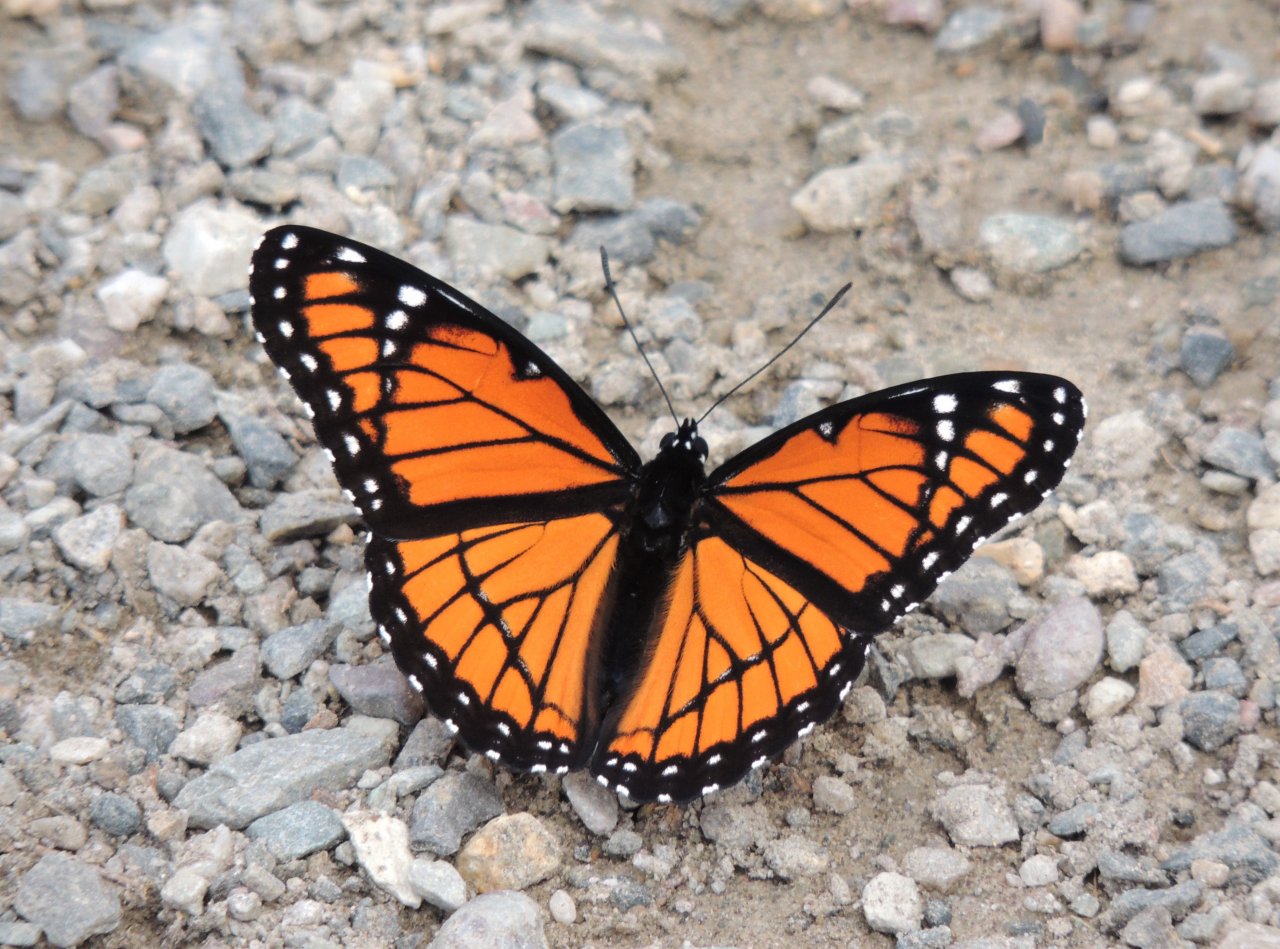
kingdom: Animalia
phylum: Arthropoda
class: Insecta
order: Lepidoptera
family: Nymphalidae
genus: Limenitis
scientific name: Limenitis archippus
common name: Viceroy
